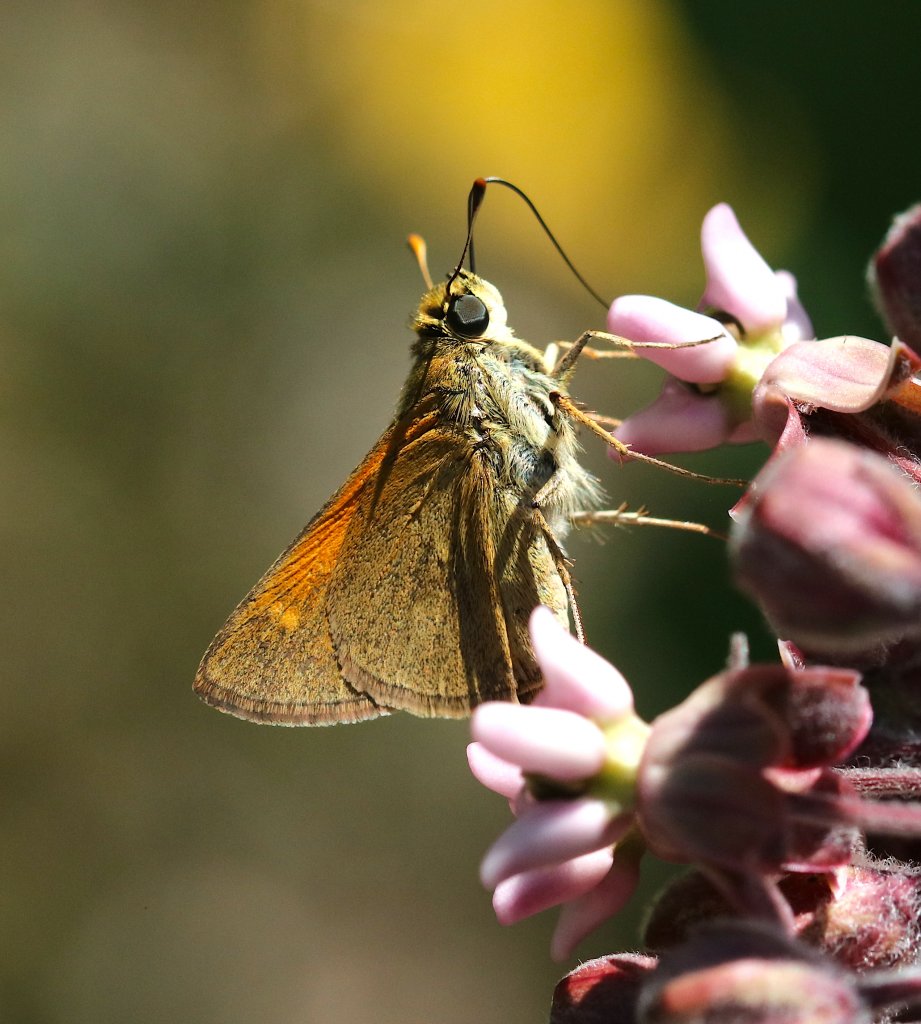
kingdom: Animalia
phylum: Arthropoda
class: Insecta
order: Lepidoptera
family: Hesperiidae
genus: Polites
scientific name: Polites themistocles
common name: Tawny-edged Skipper
